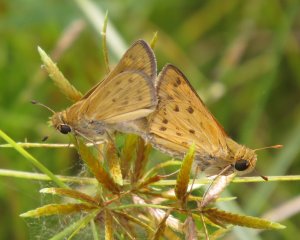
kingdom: Animalia
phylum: Arthropoda
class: Insecta
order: Lepidoptera
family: Hesperiidae
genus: Hylephila
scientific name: Hylephila phyleus
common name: Fiery Skipper
